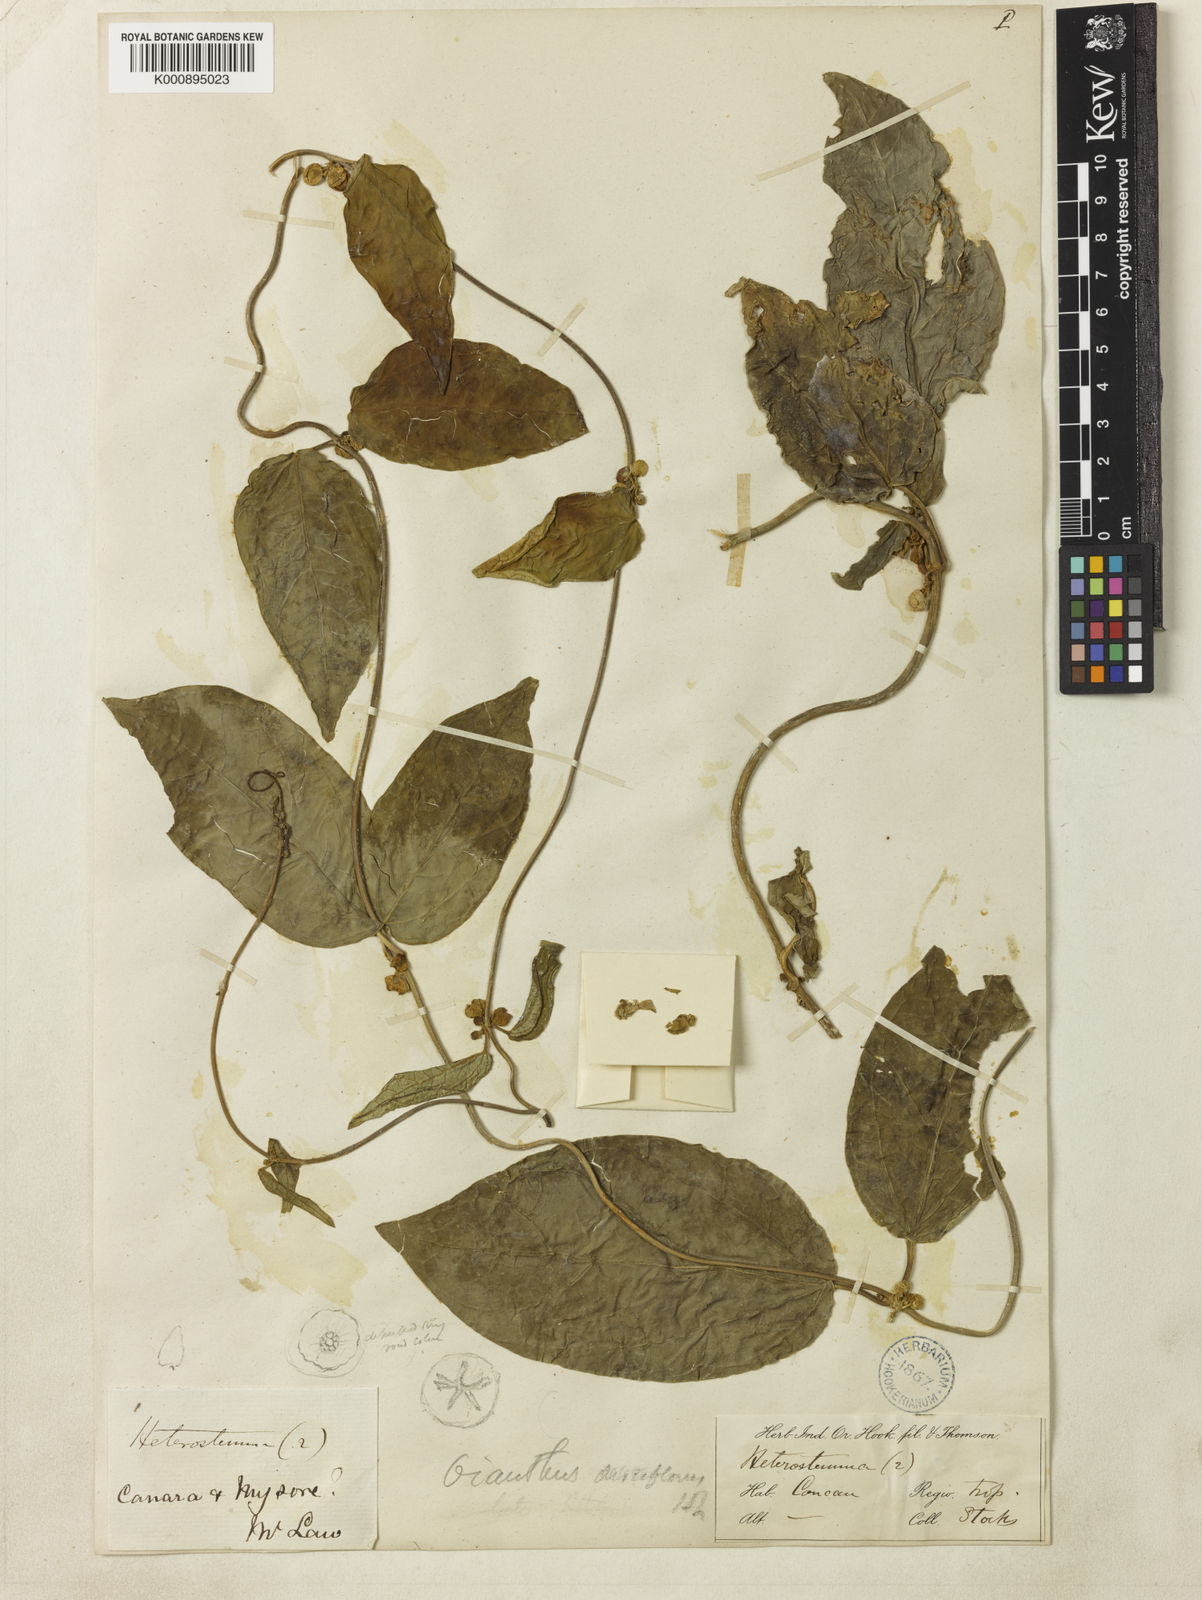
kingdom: Plantae
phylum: Tracheophyta
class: Magnoliopsida
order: Gentianales
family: Apocynaceae
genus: Heterostemma
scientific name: Heterostemma disciflorum
